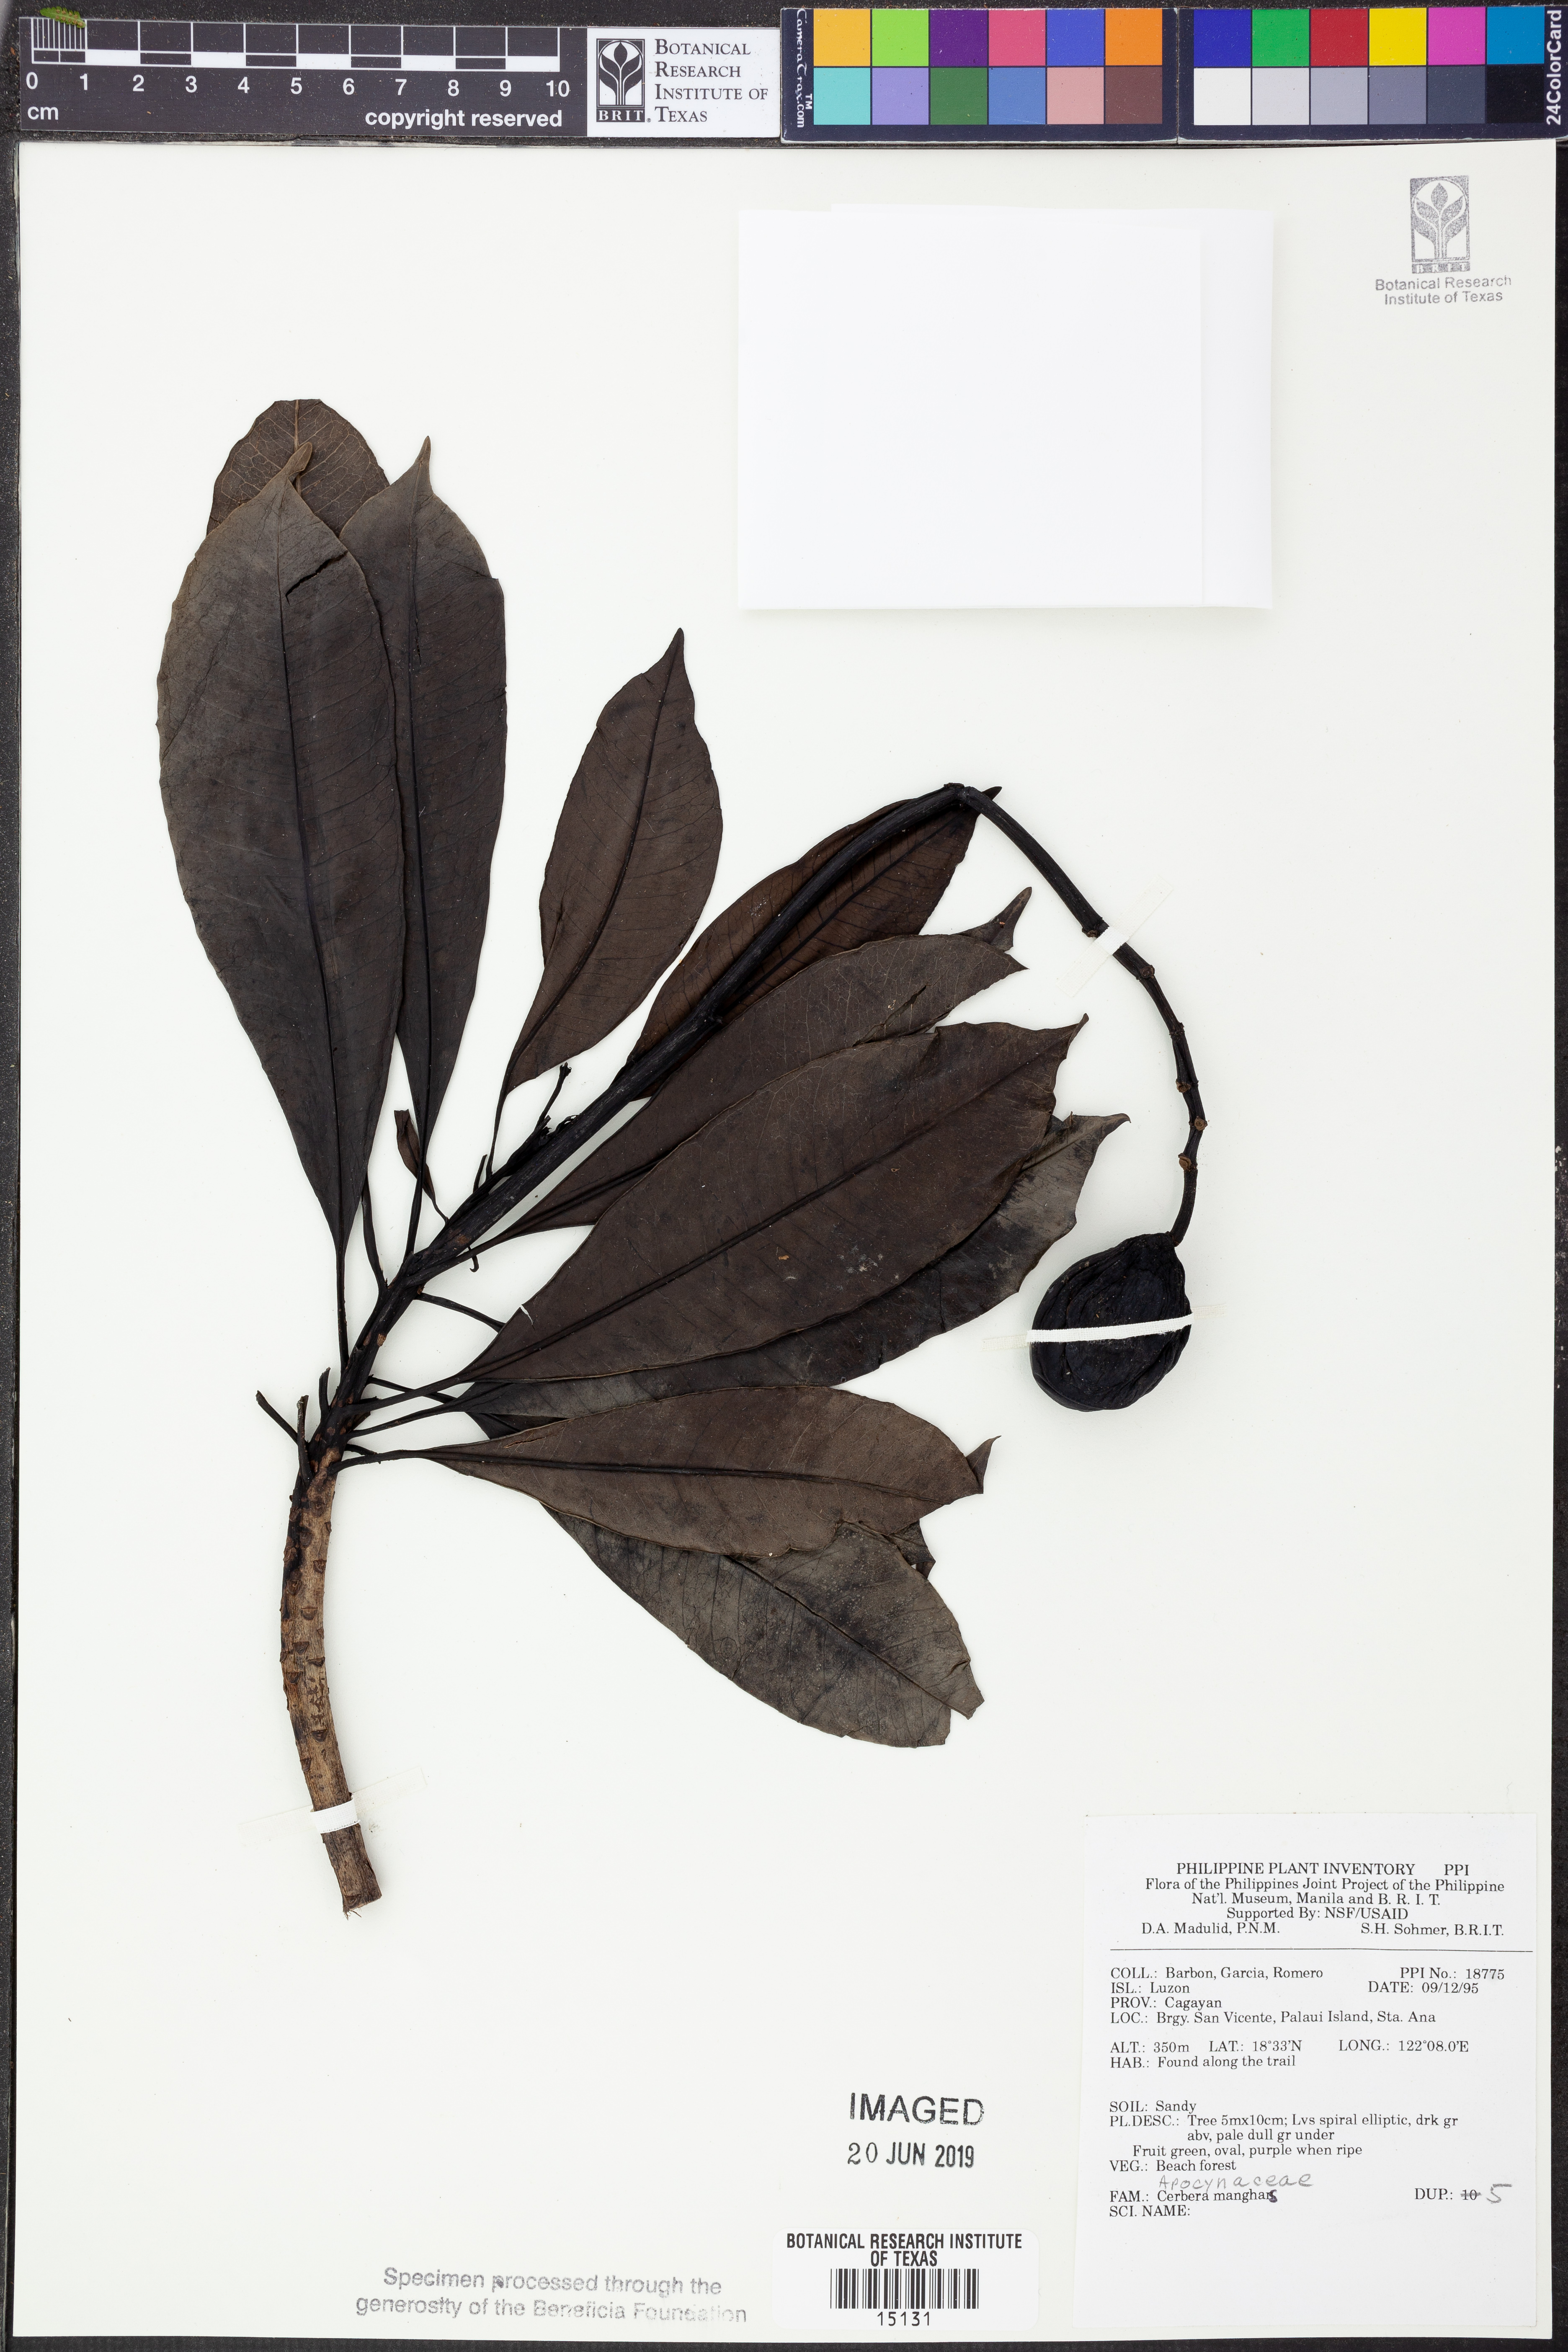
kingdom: Plantae
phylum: Tracheophyta
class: Magnoliopsida
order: Gentianales
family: Apocynaceae
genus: Cerbera
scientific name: Cerbera manghas
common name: Reva
